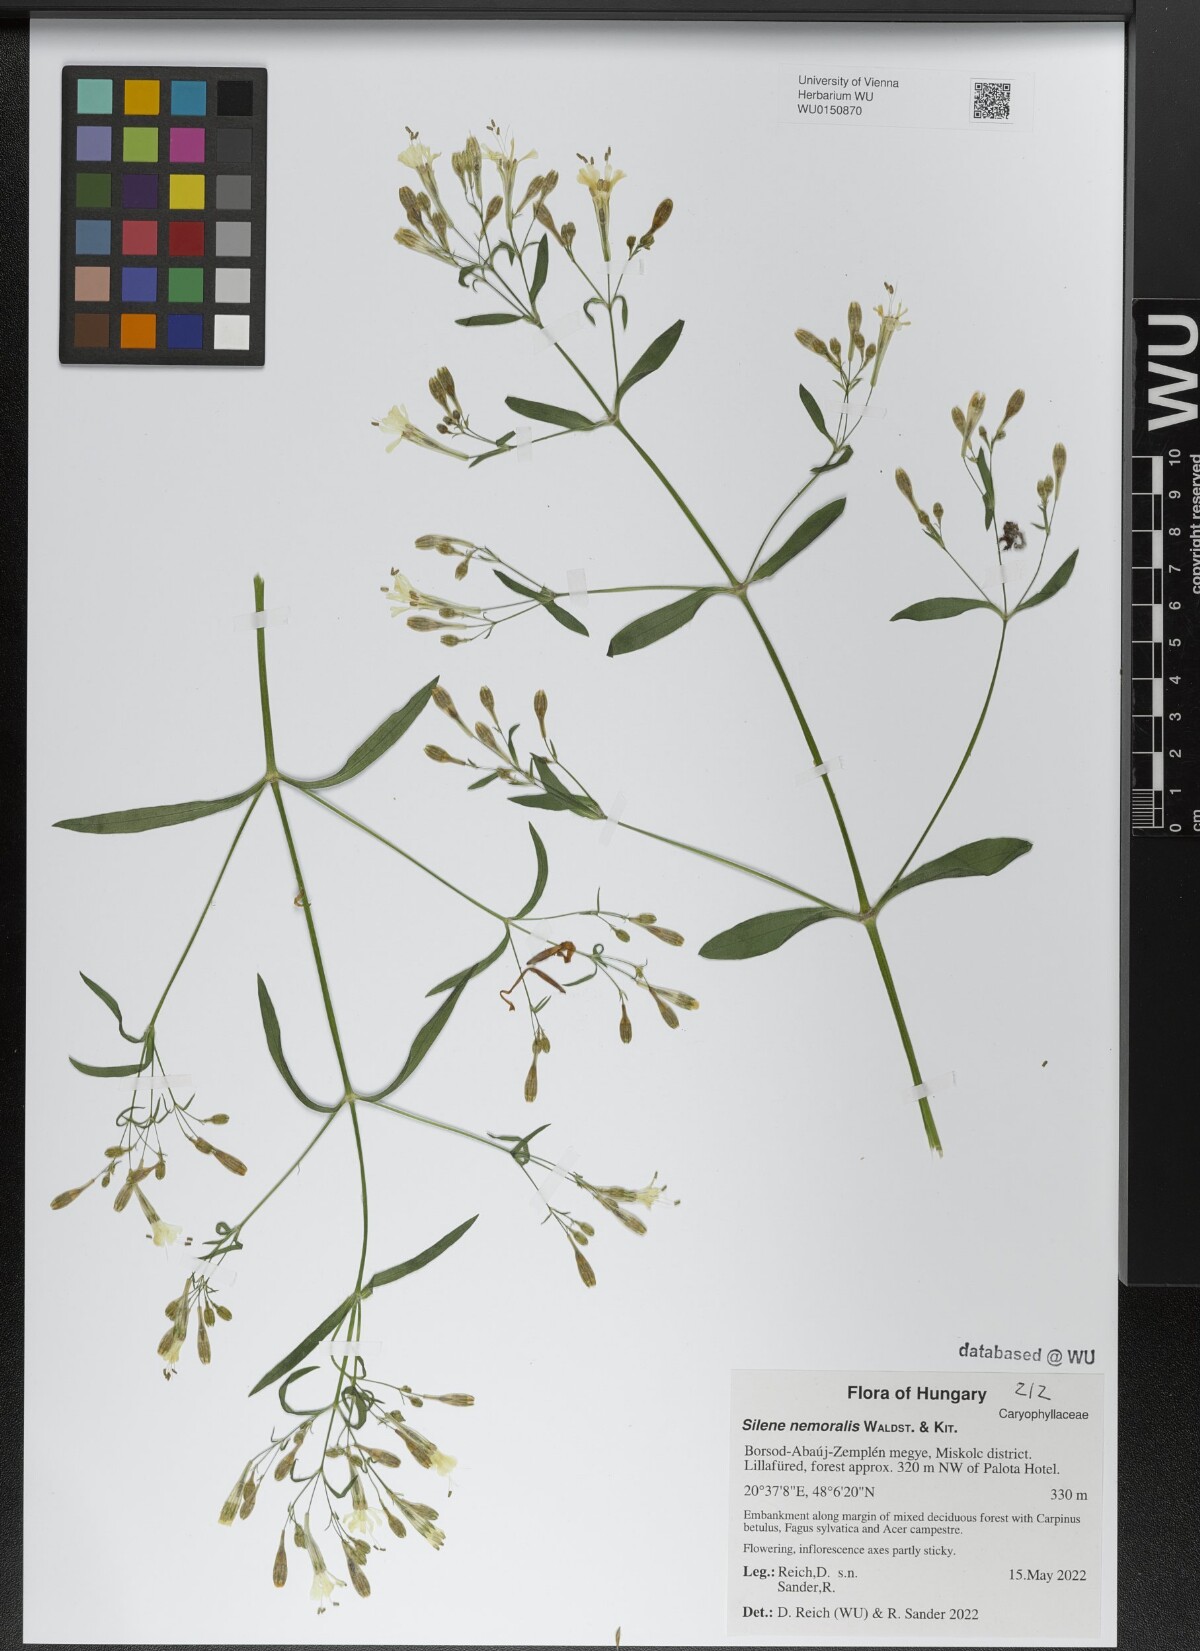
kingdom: Plantae
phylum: Tracheophyta
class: Magnoliopsida
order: Caryophyllales
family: Caryophyllaceae
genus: Silene
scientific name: Silene nemoralis
